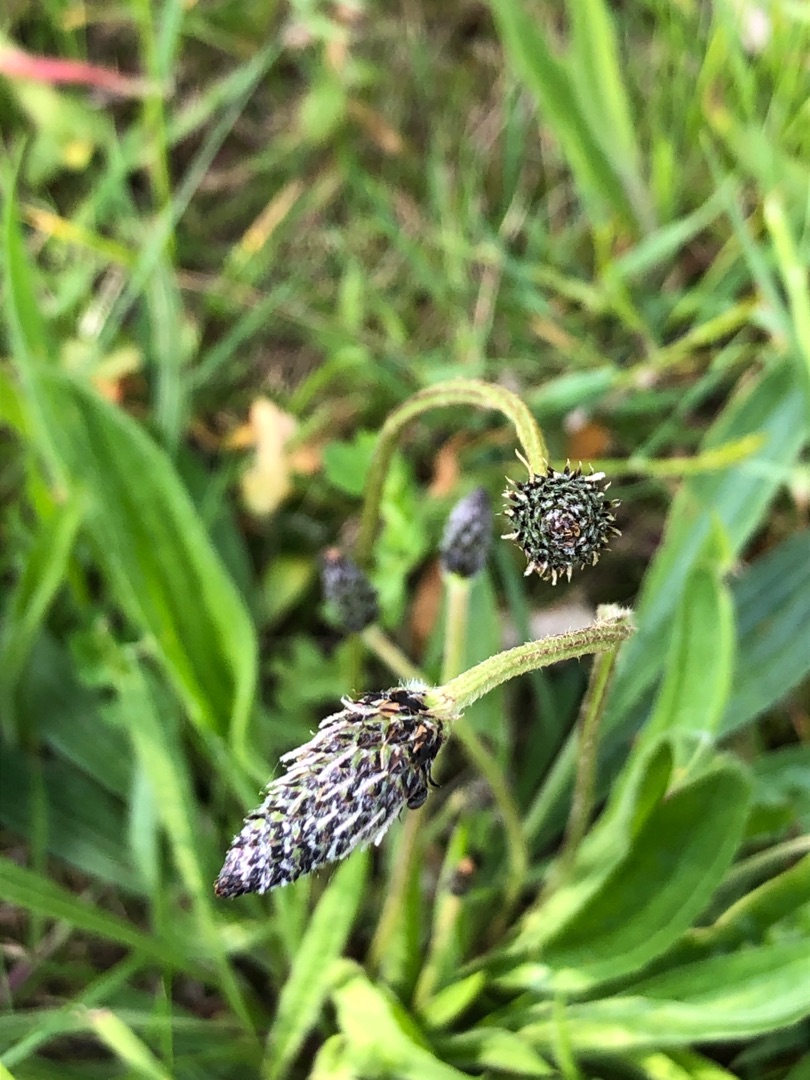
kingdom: Plantae
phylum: Tracheophyta
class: Magnoliopsida
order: Lamiales
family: Plantaginaceae
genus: Plantago
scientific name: Plantago lanceolata
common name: Lancet-vejbred
